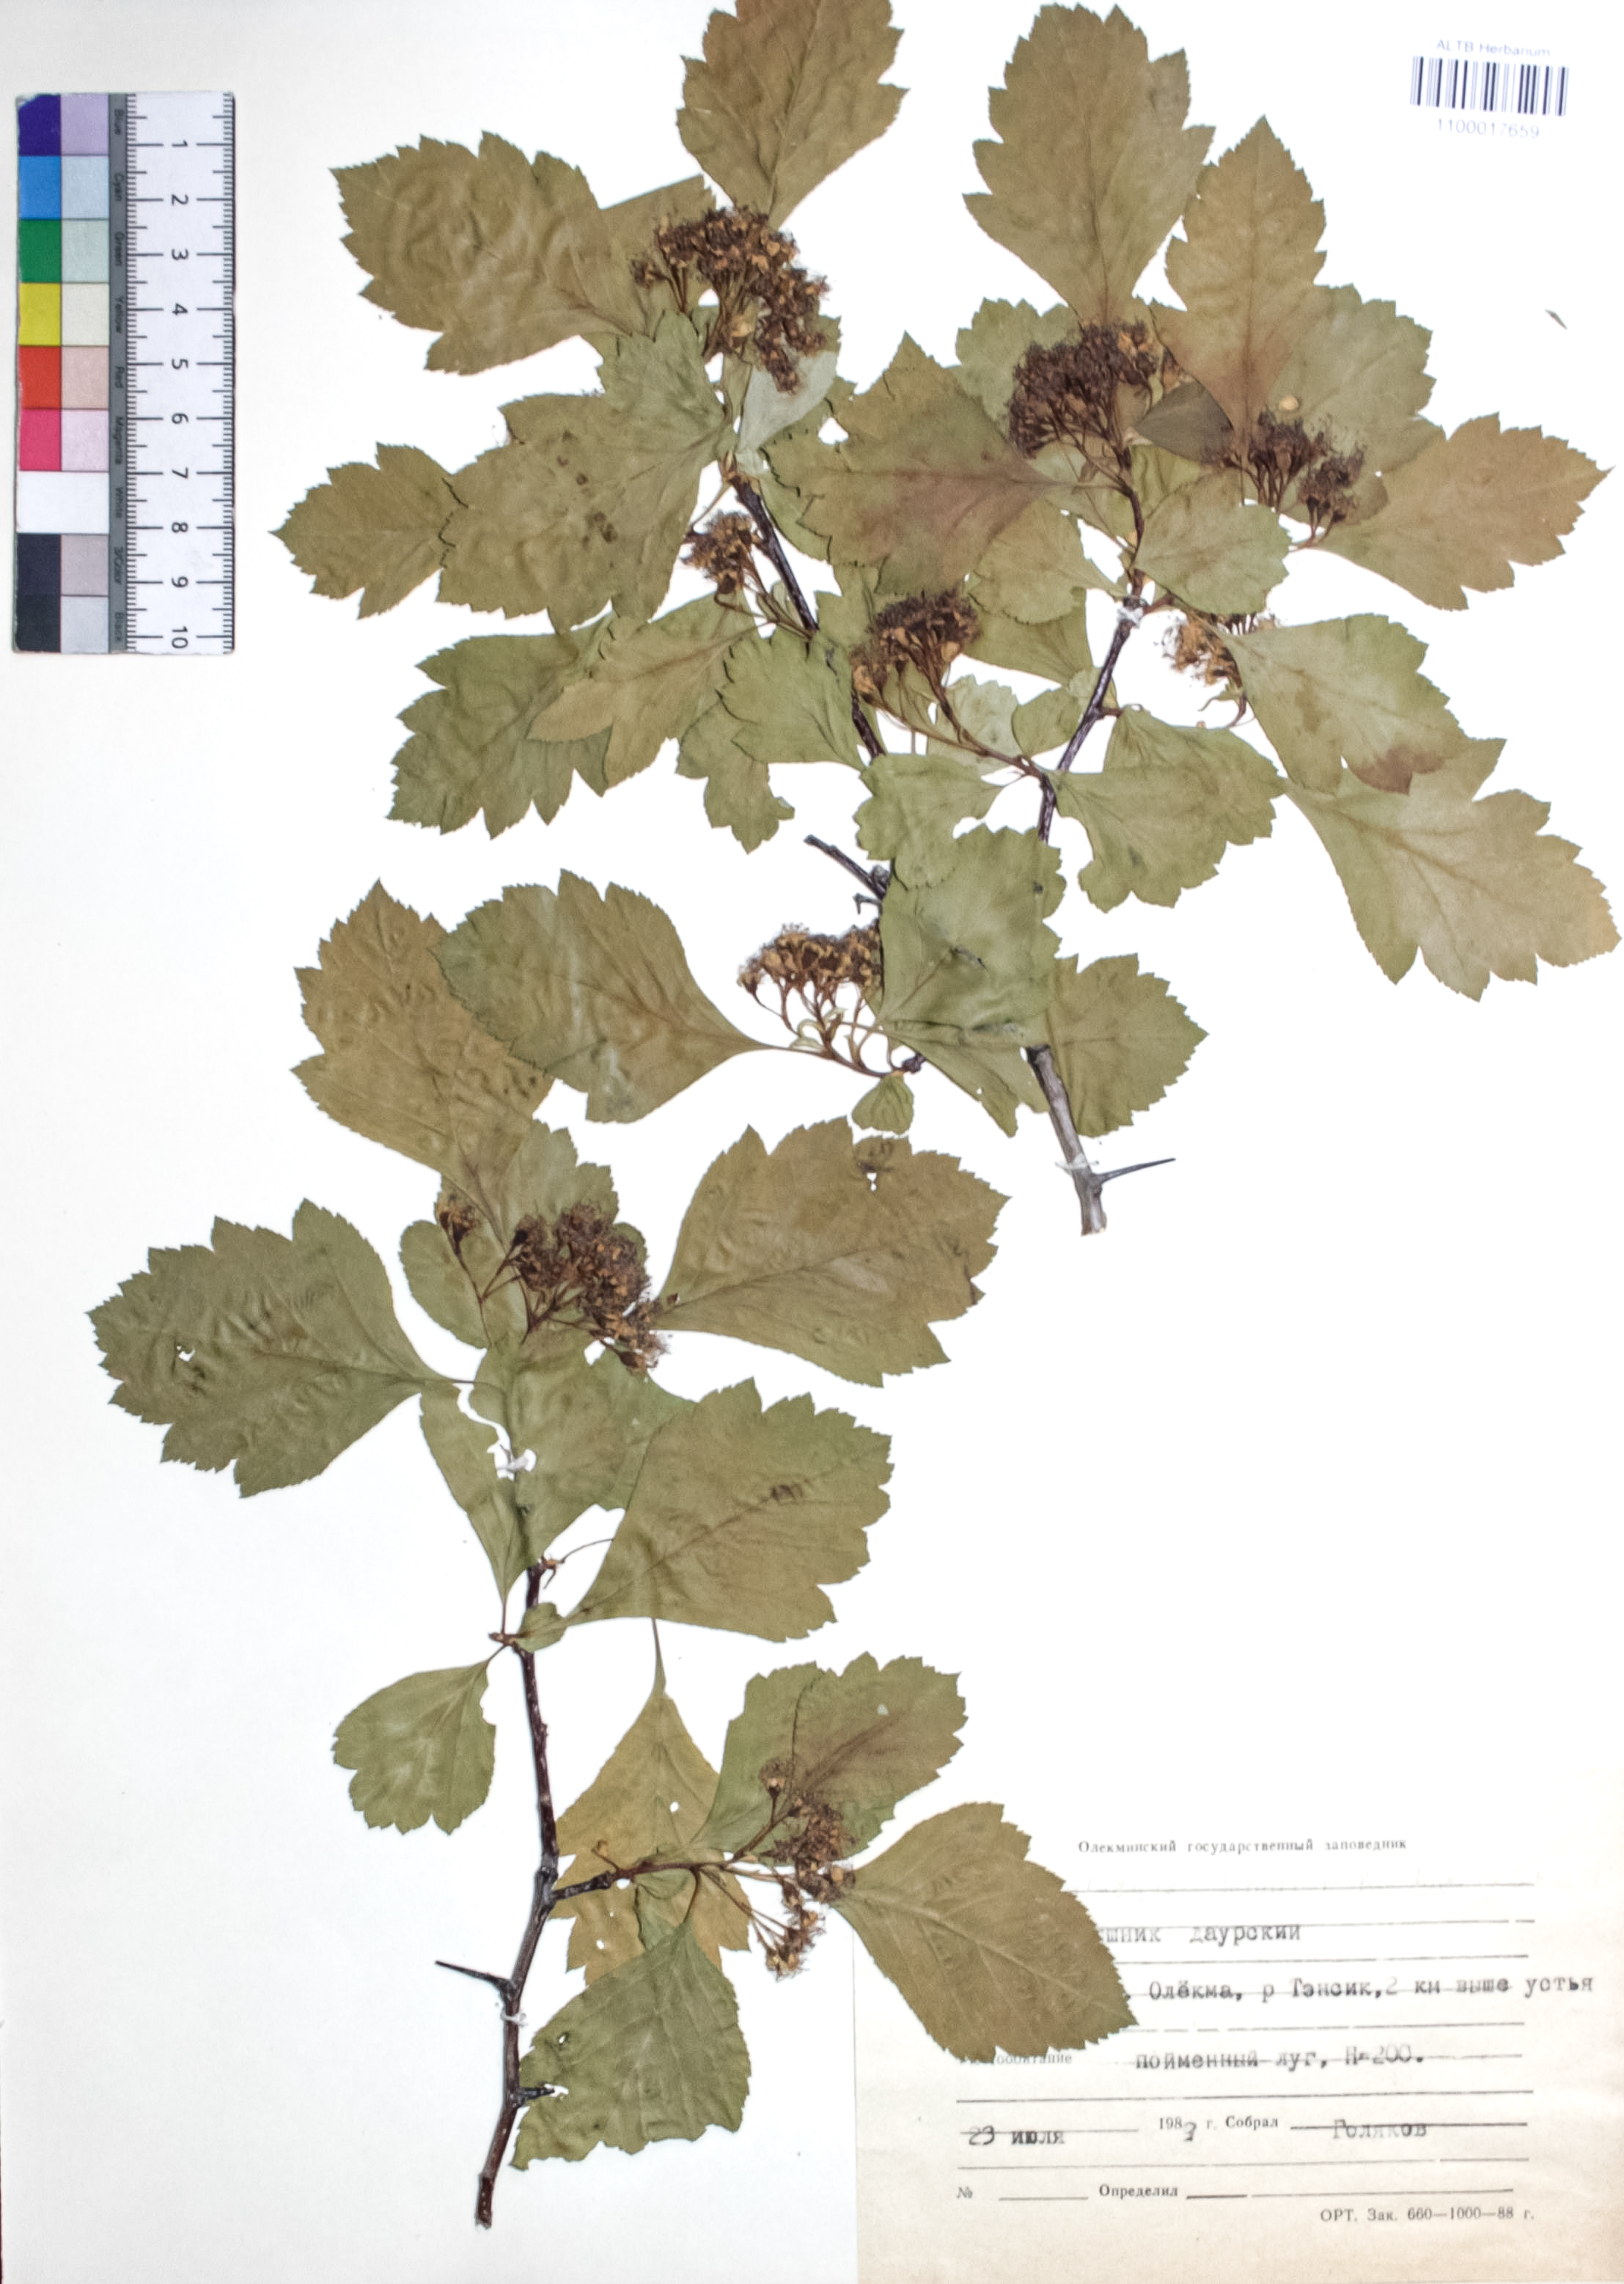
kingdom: Plantae
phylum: Tracheophyta
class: Magnoliopsida
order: Rosales
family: Rosaceae
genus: Crataegus
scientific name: Crataegus dahurica
